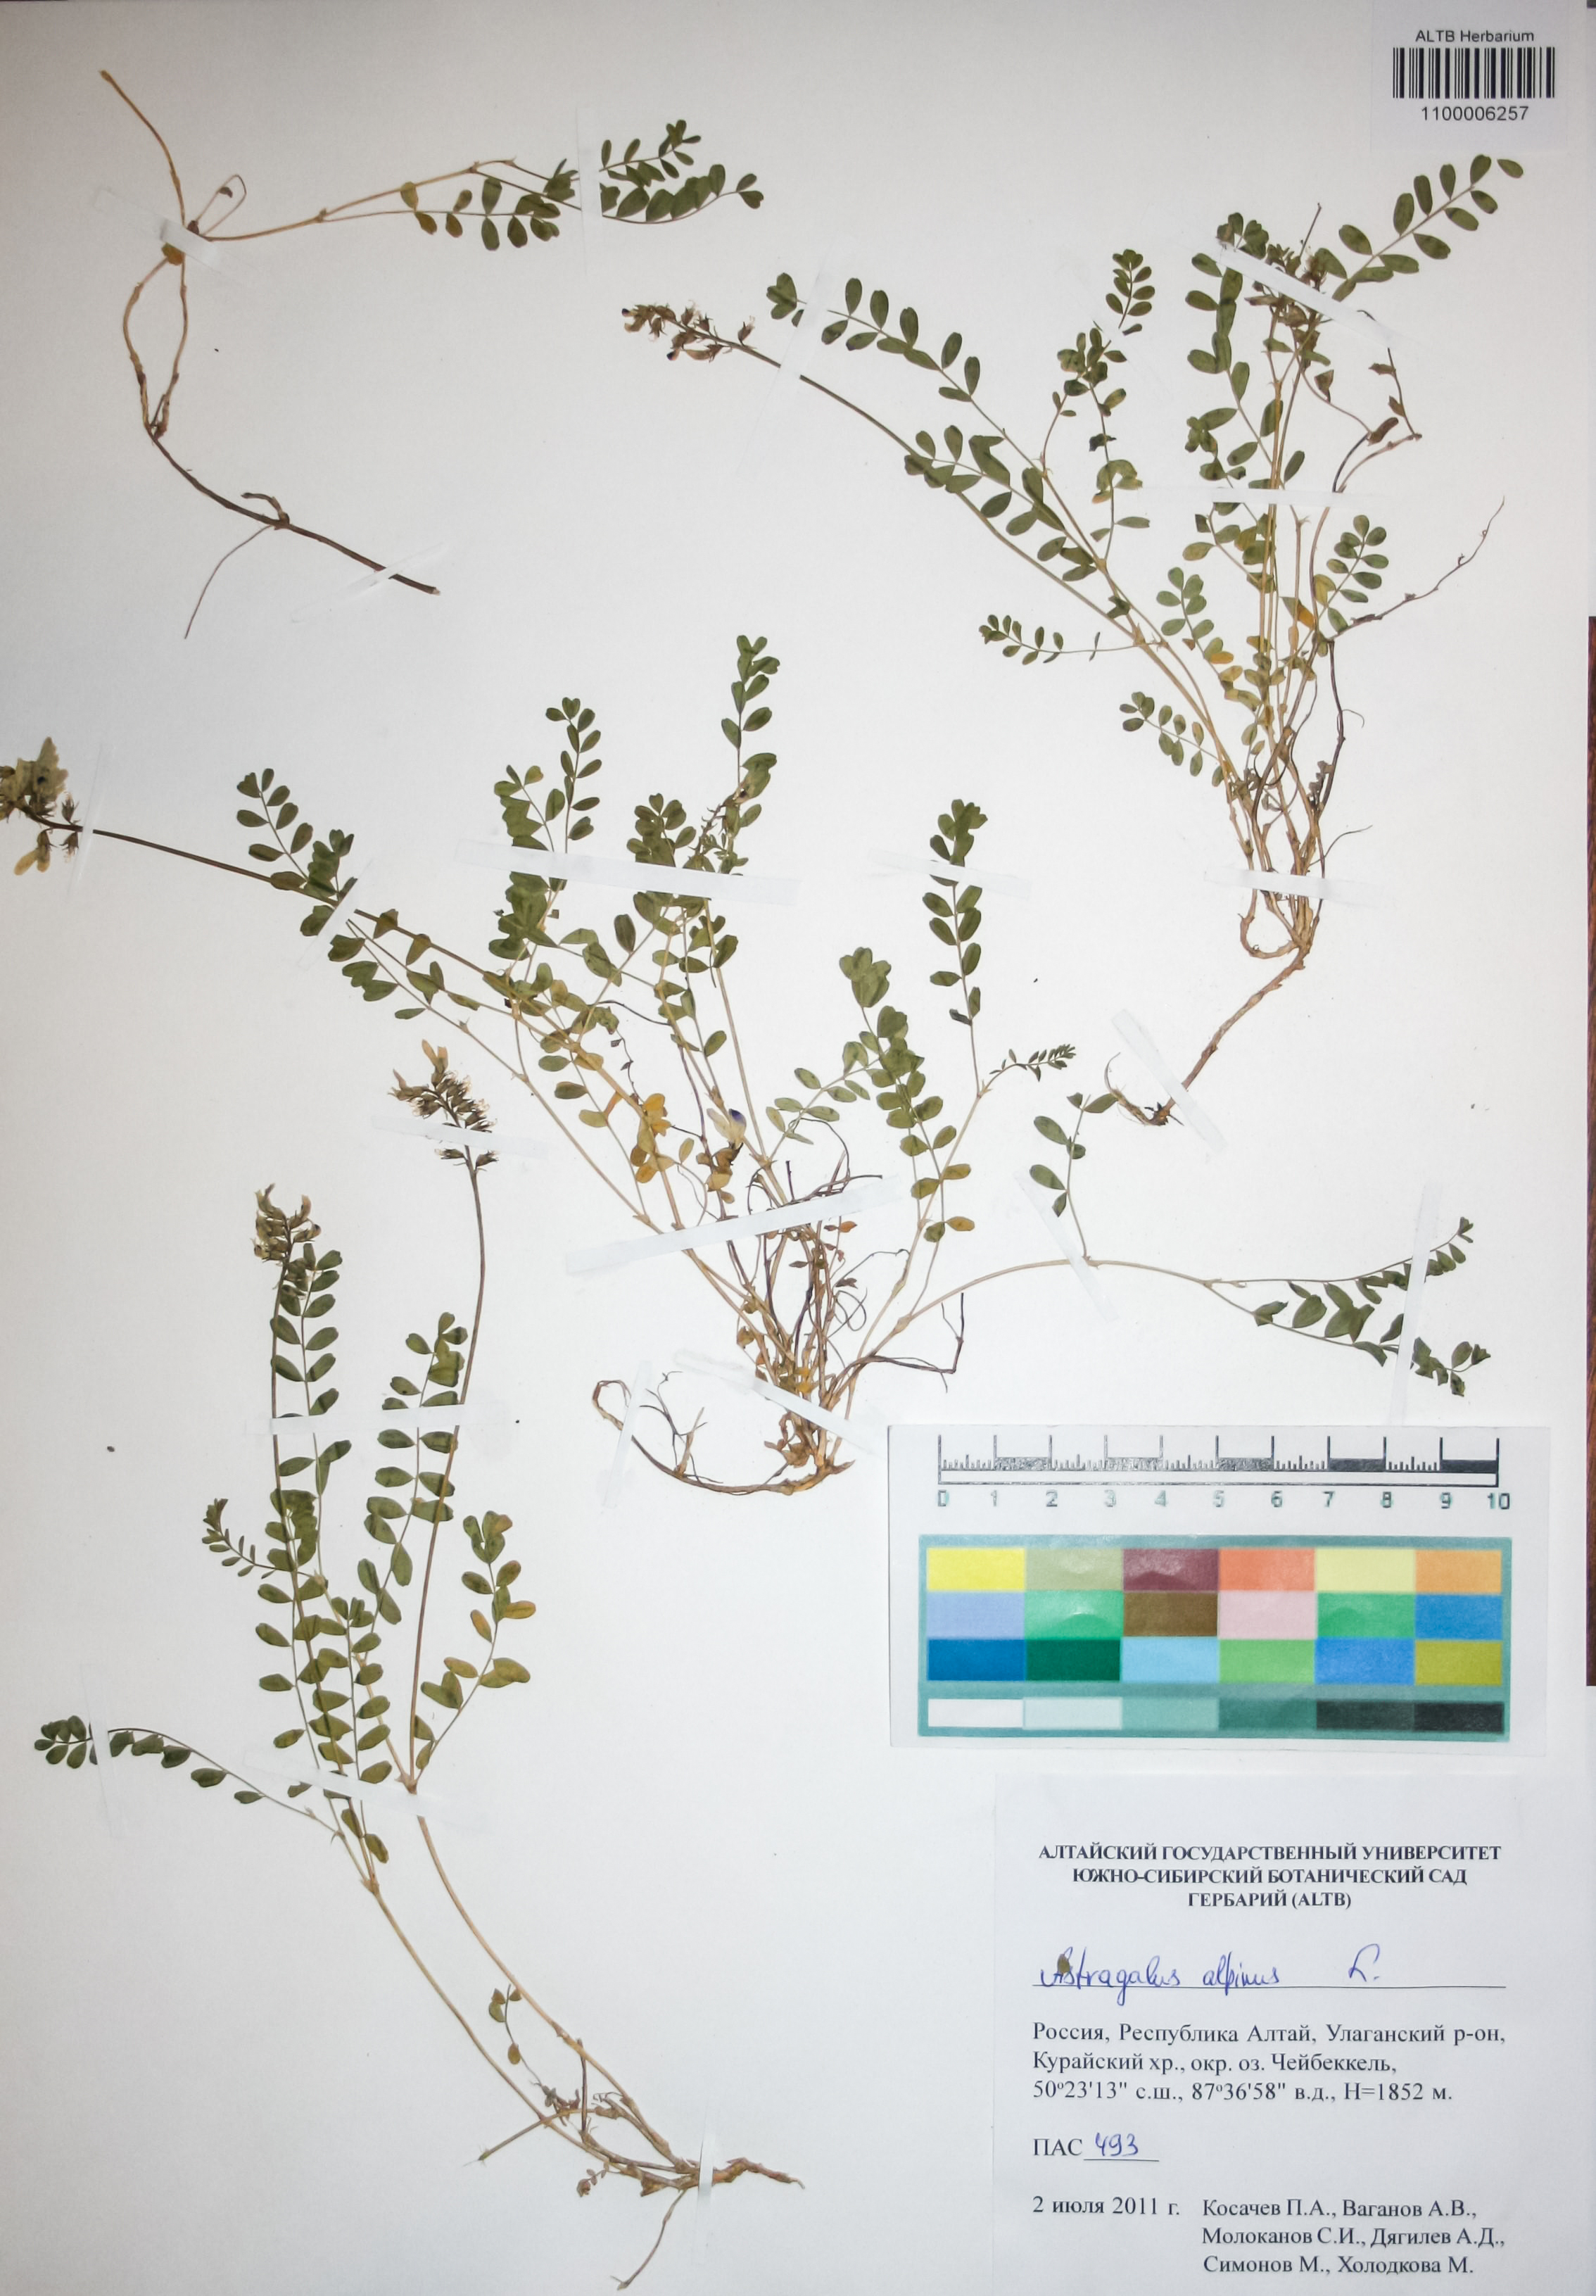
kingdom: Plantae
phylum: Tracheophyta
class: Magnoliopsida
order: Fabales
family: Fabaceae
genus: Astragalus
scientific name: Astragalus alpinus
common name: Alpine milk-vetch
